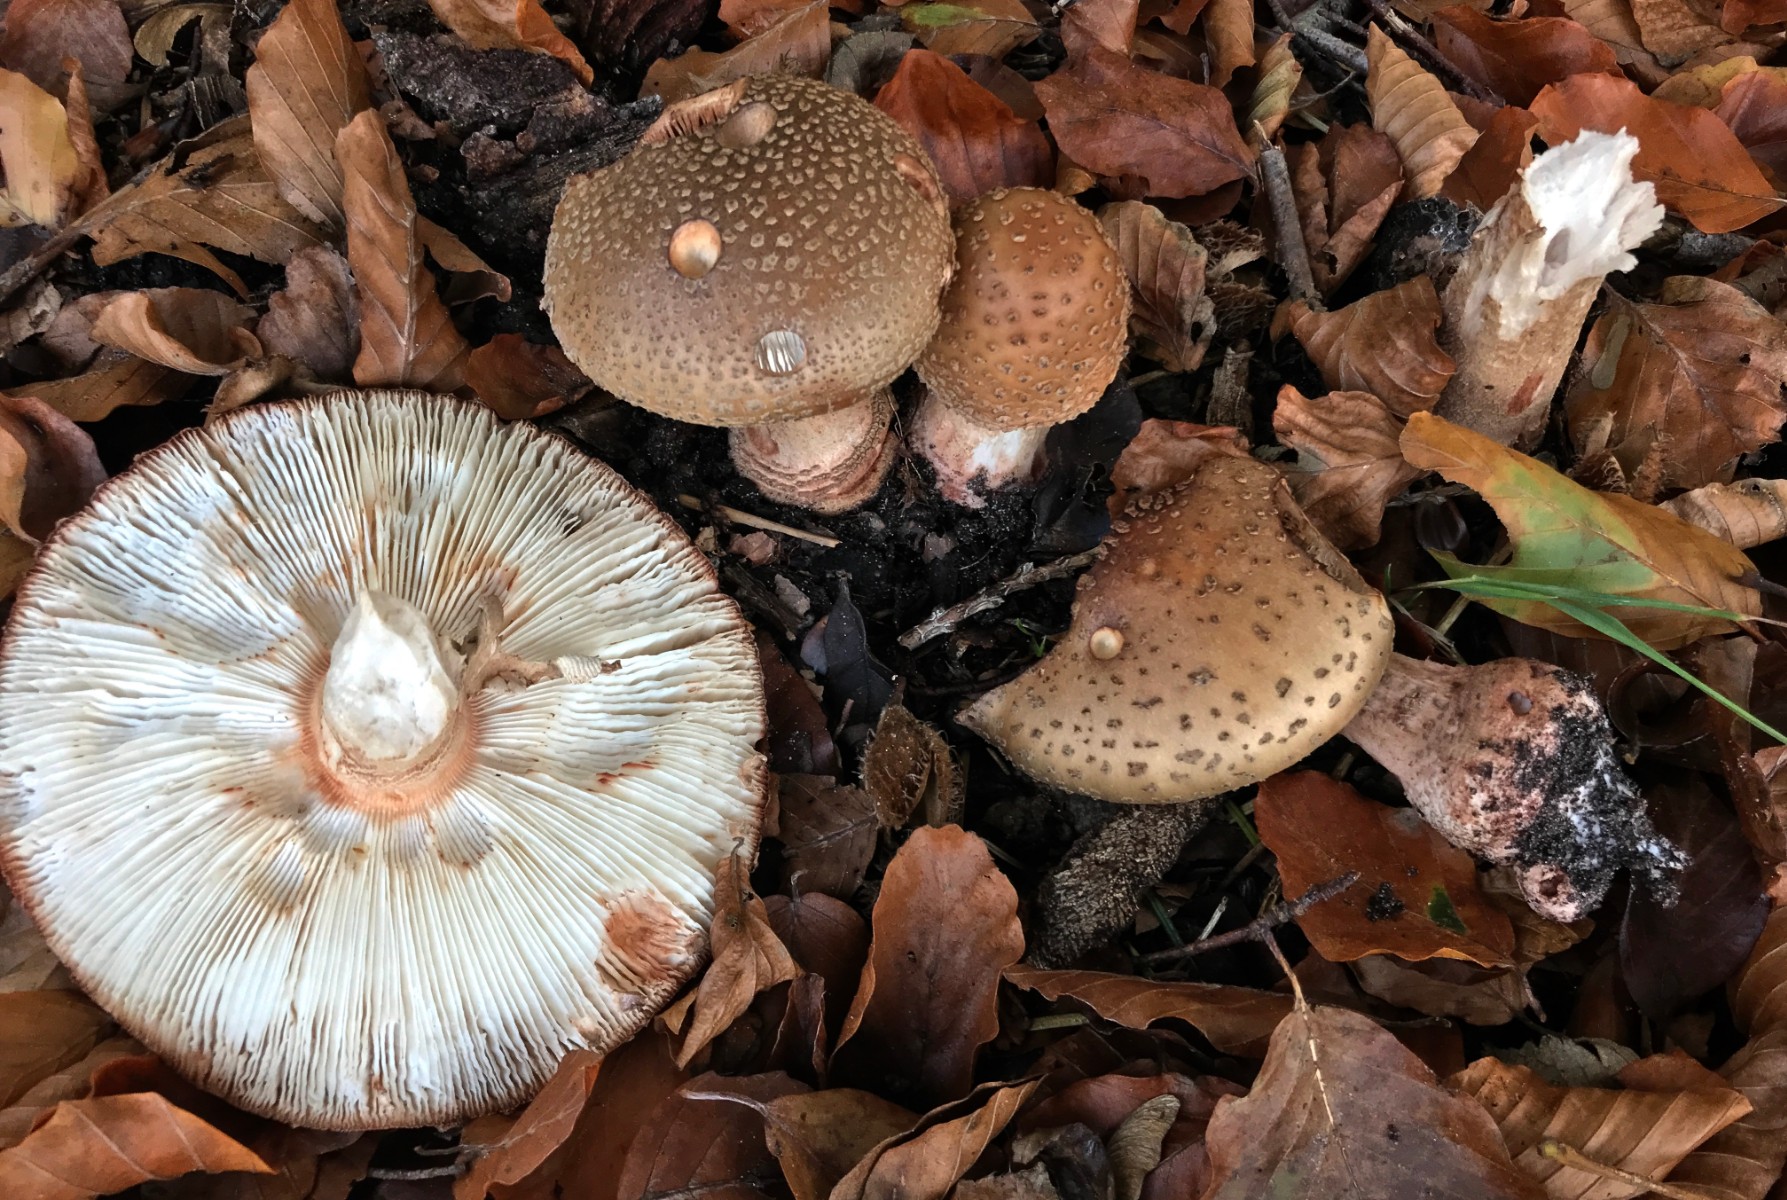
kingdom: Fungi
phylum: Basidiomycota
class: Agaricomycetes
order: Agaricales
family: Amanitaceae
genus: Amanita
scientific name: Amanita rubescens
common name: rødmende fluesvamp
